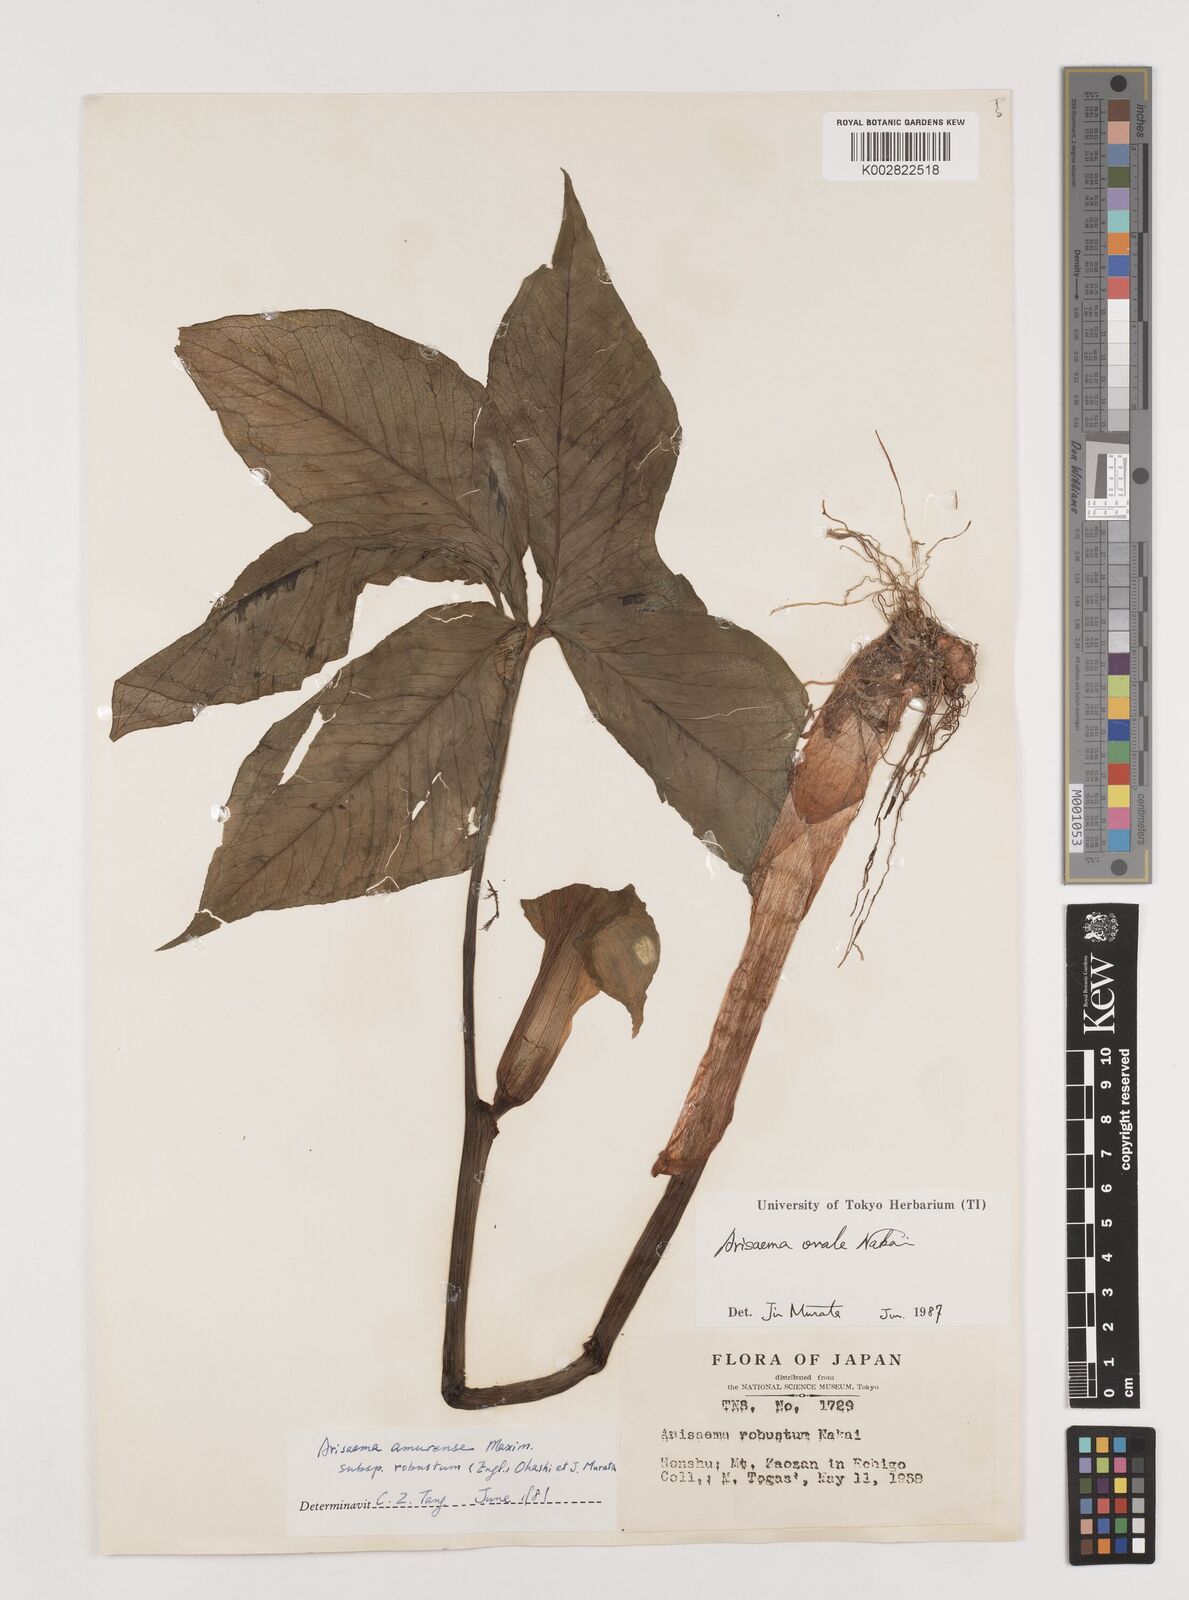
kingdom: Plantae
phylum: Tracheophyta
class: Liliopsida
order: Alismatales
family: Araceae
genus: Arisaema
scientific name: Arisaema ovale
